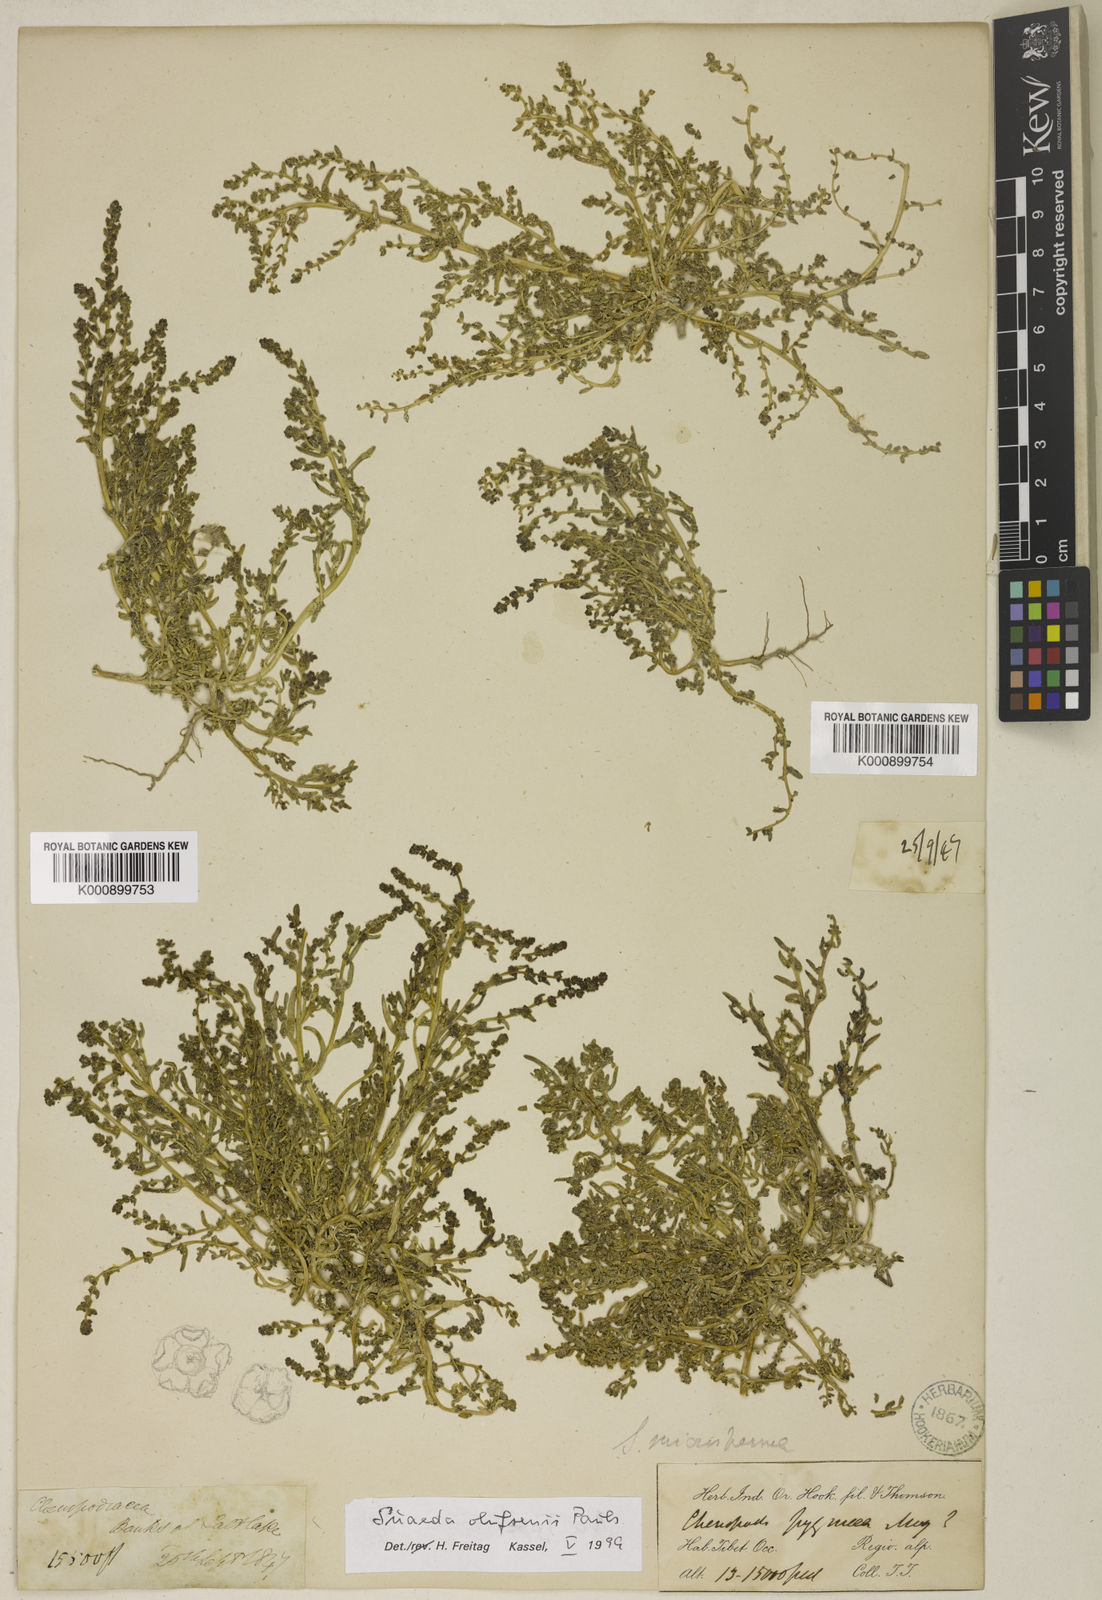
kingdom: Plantae
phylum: Tracheophyta
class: Magnoliopsida
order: Caryophyllales
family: Amaranthaceae
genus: Suaeda
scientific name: Suaeda olufsenii
